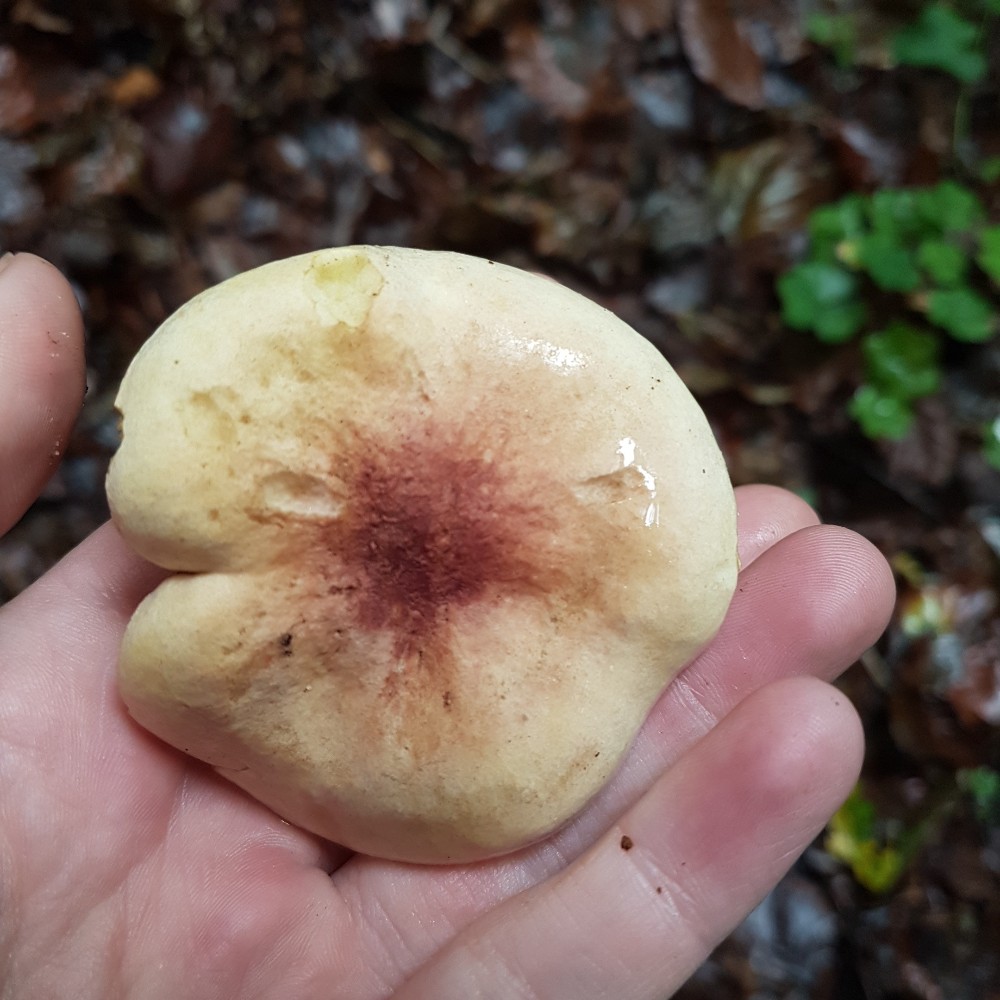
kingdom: Fungi
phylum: Basidiomycota
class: Agaricomycetes
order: Agaricales
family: Tricholomataceae
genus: Tricholoma
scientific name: Tricholoma sulphureum
